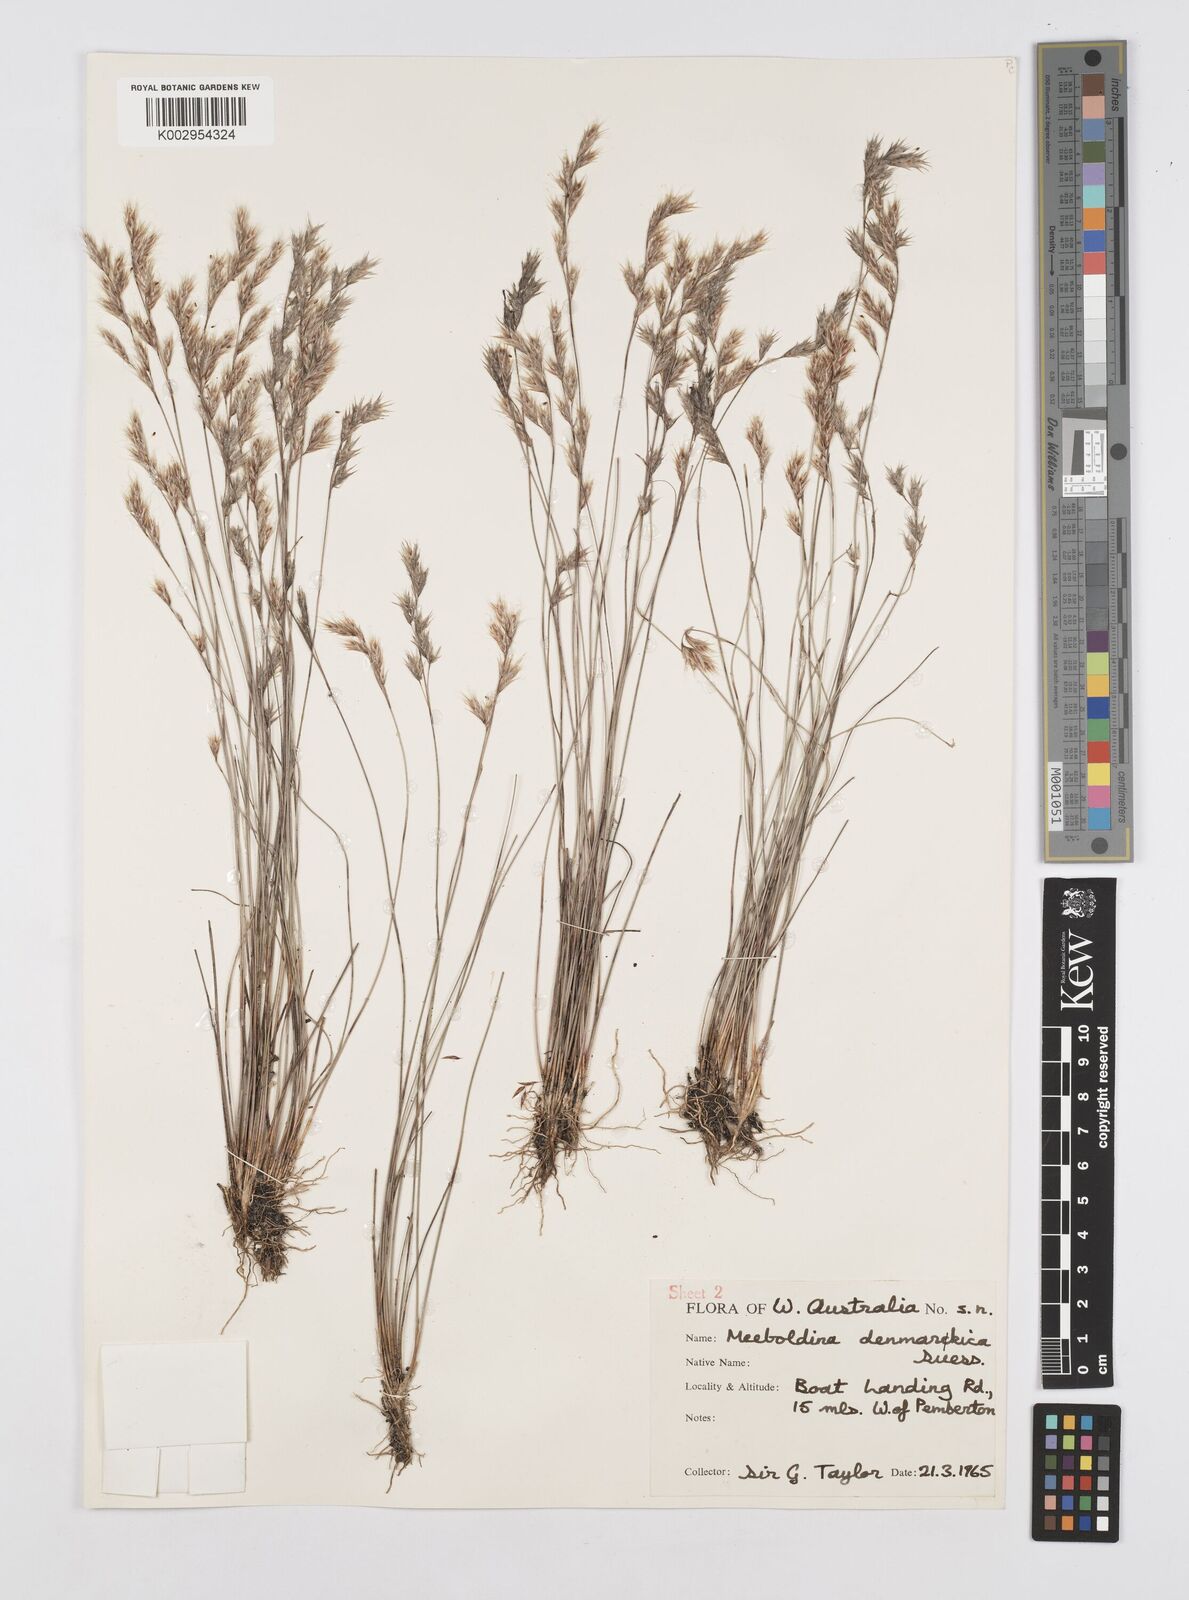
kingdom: Plantae
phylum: Tracheophyta
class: Liliopsida
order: Poales
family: Restionaceae
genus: Leptocarpus
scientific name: Leptocarpus denmarkicus
